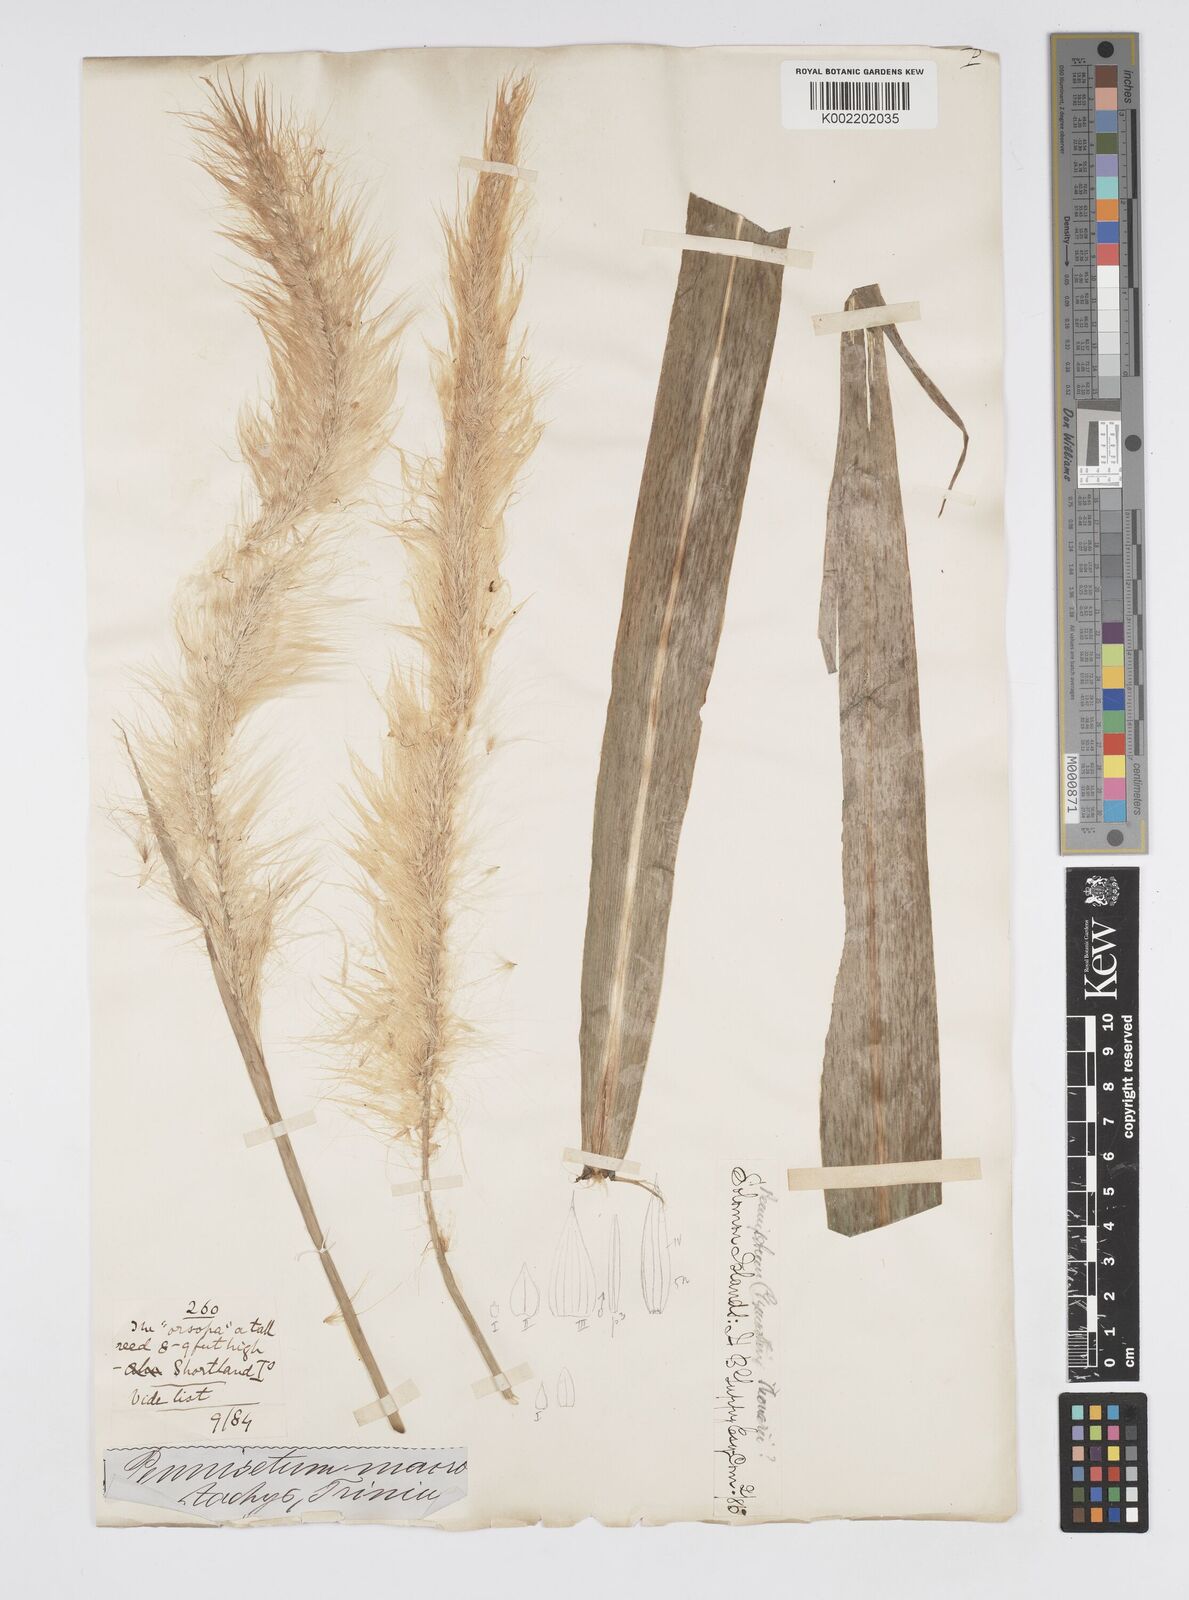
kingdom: Plantae
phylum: Tracheophyta
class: Liliopsida
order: Poales
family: Poaceae
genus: Cenchrus
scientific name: Cenchrus purpureus
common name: Elephant grass
